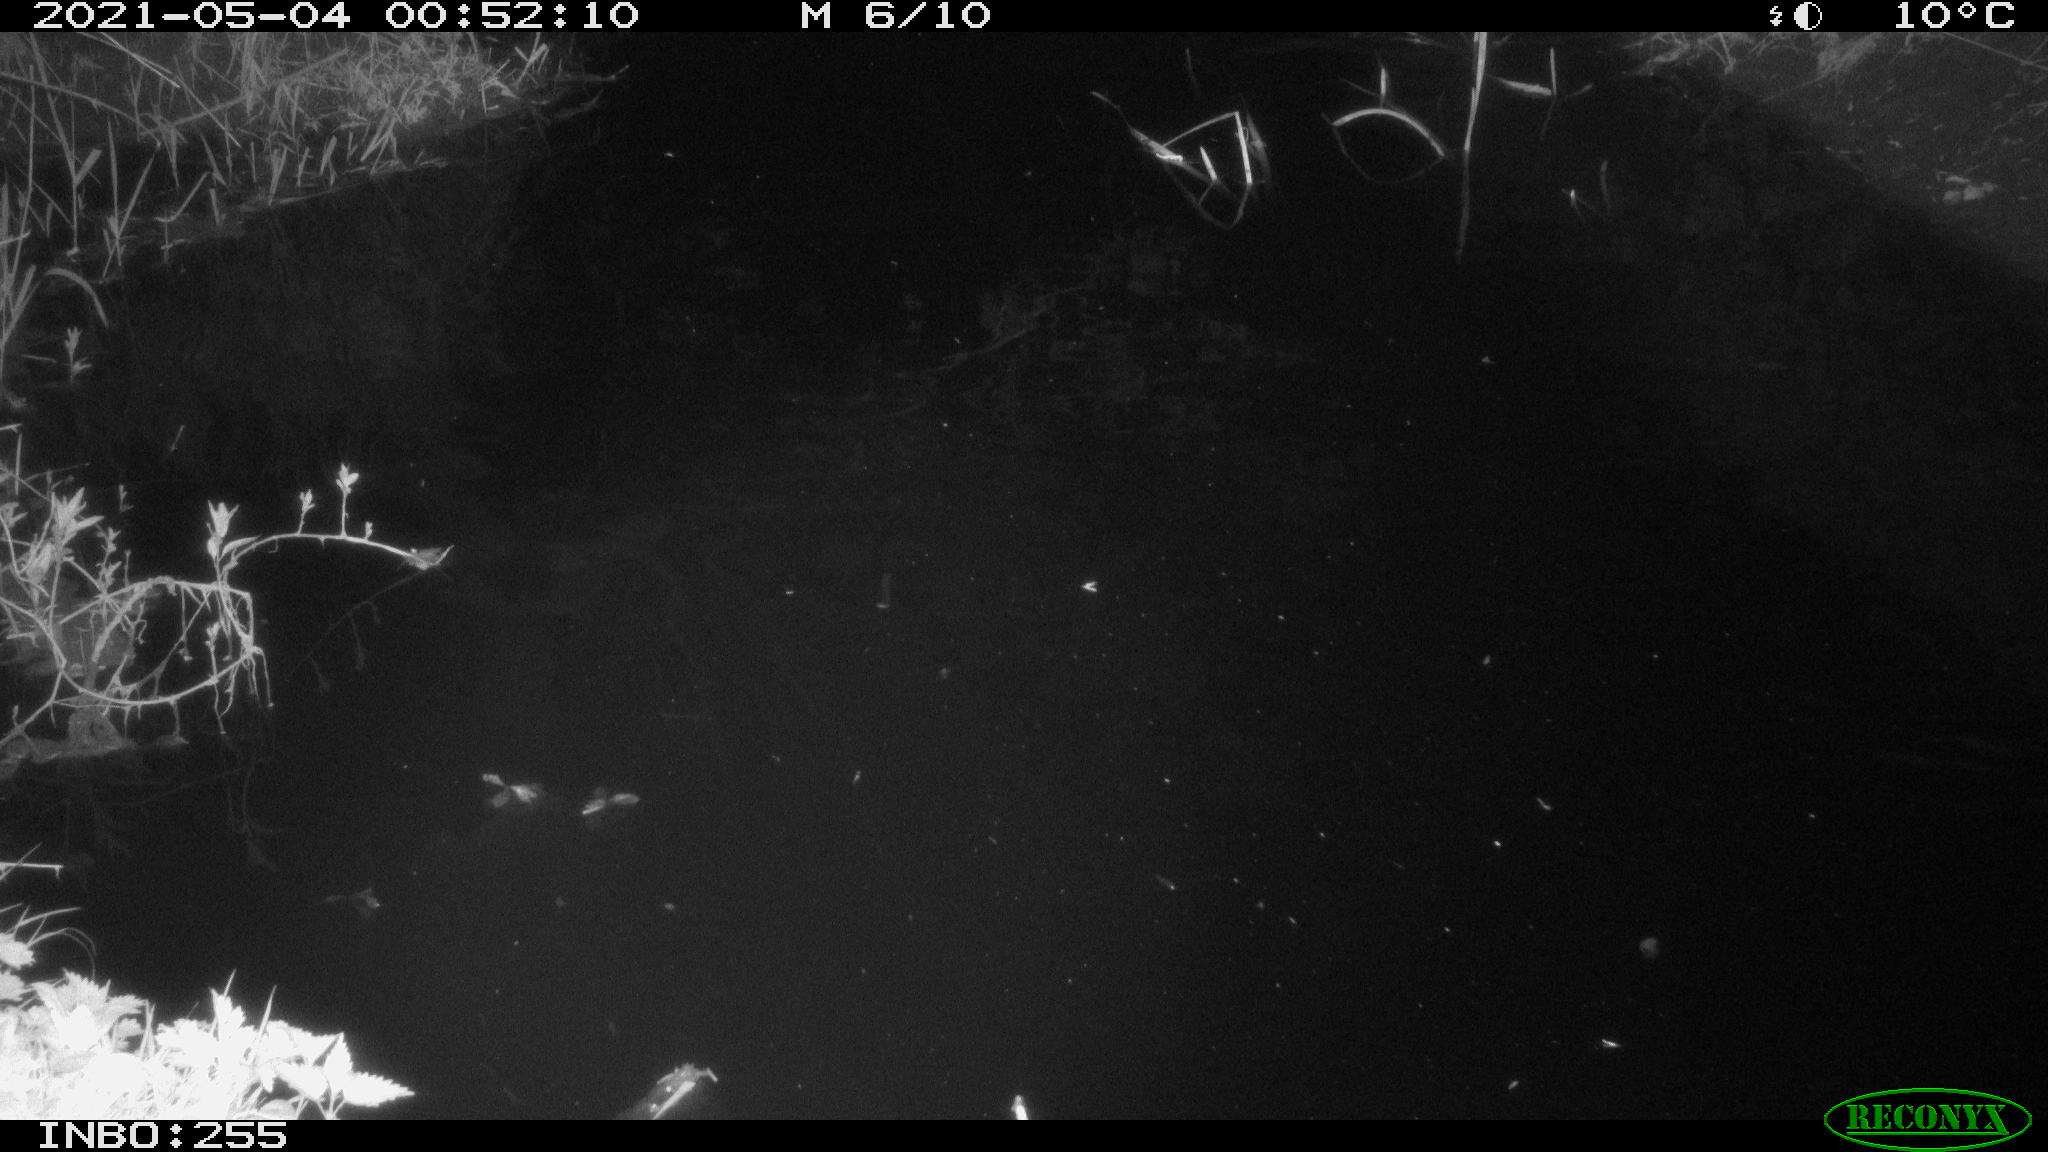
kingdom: Animalia
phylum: Chordata
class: Aves
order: Anseriformes
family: Anatidae
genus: Anas
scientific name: Anas platyrhynchos
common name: Mallard
